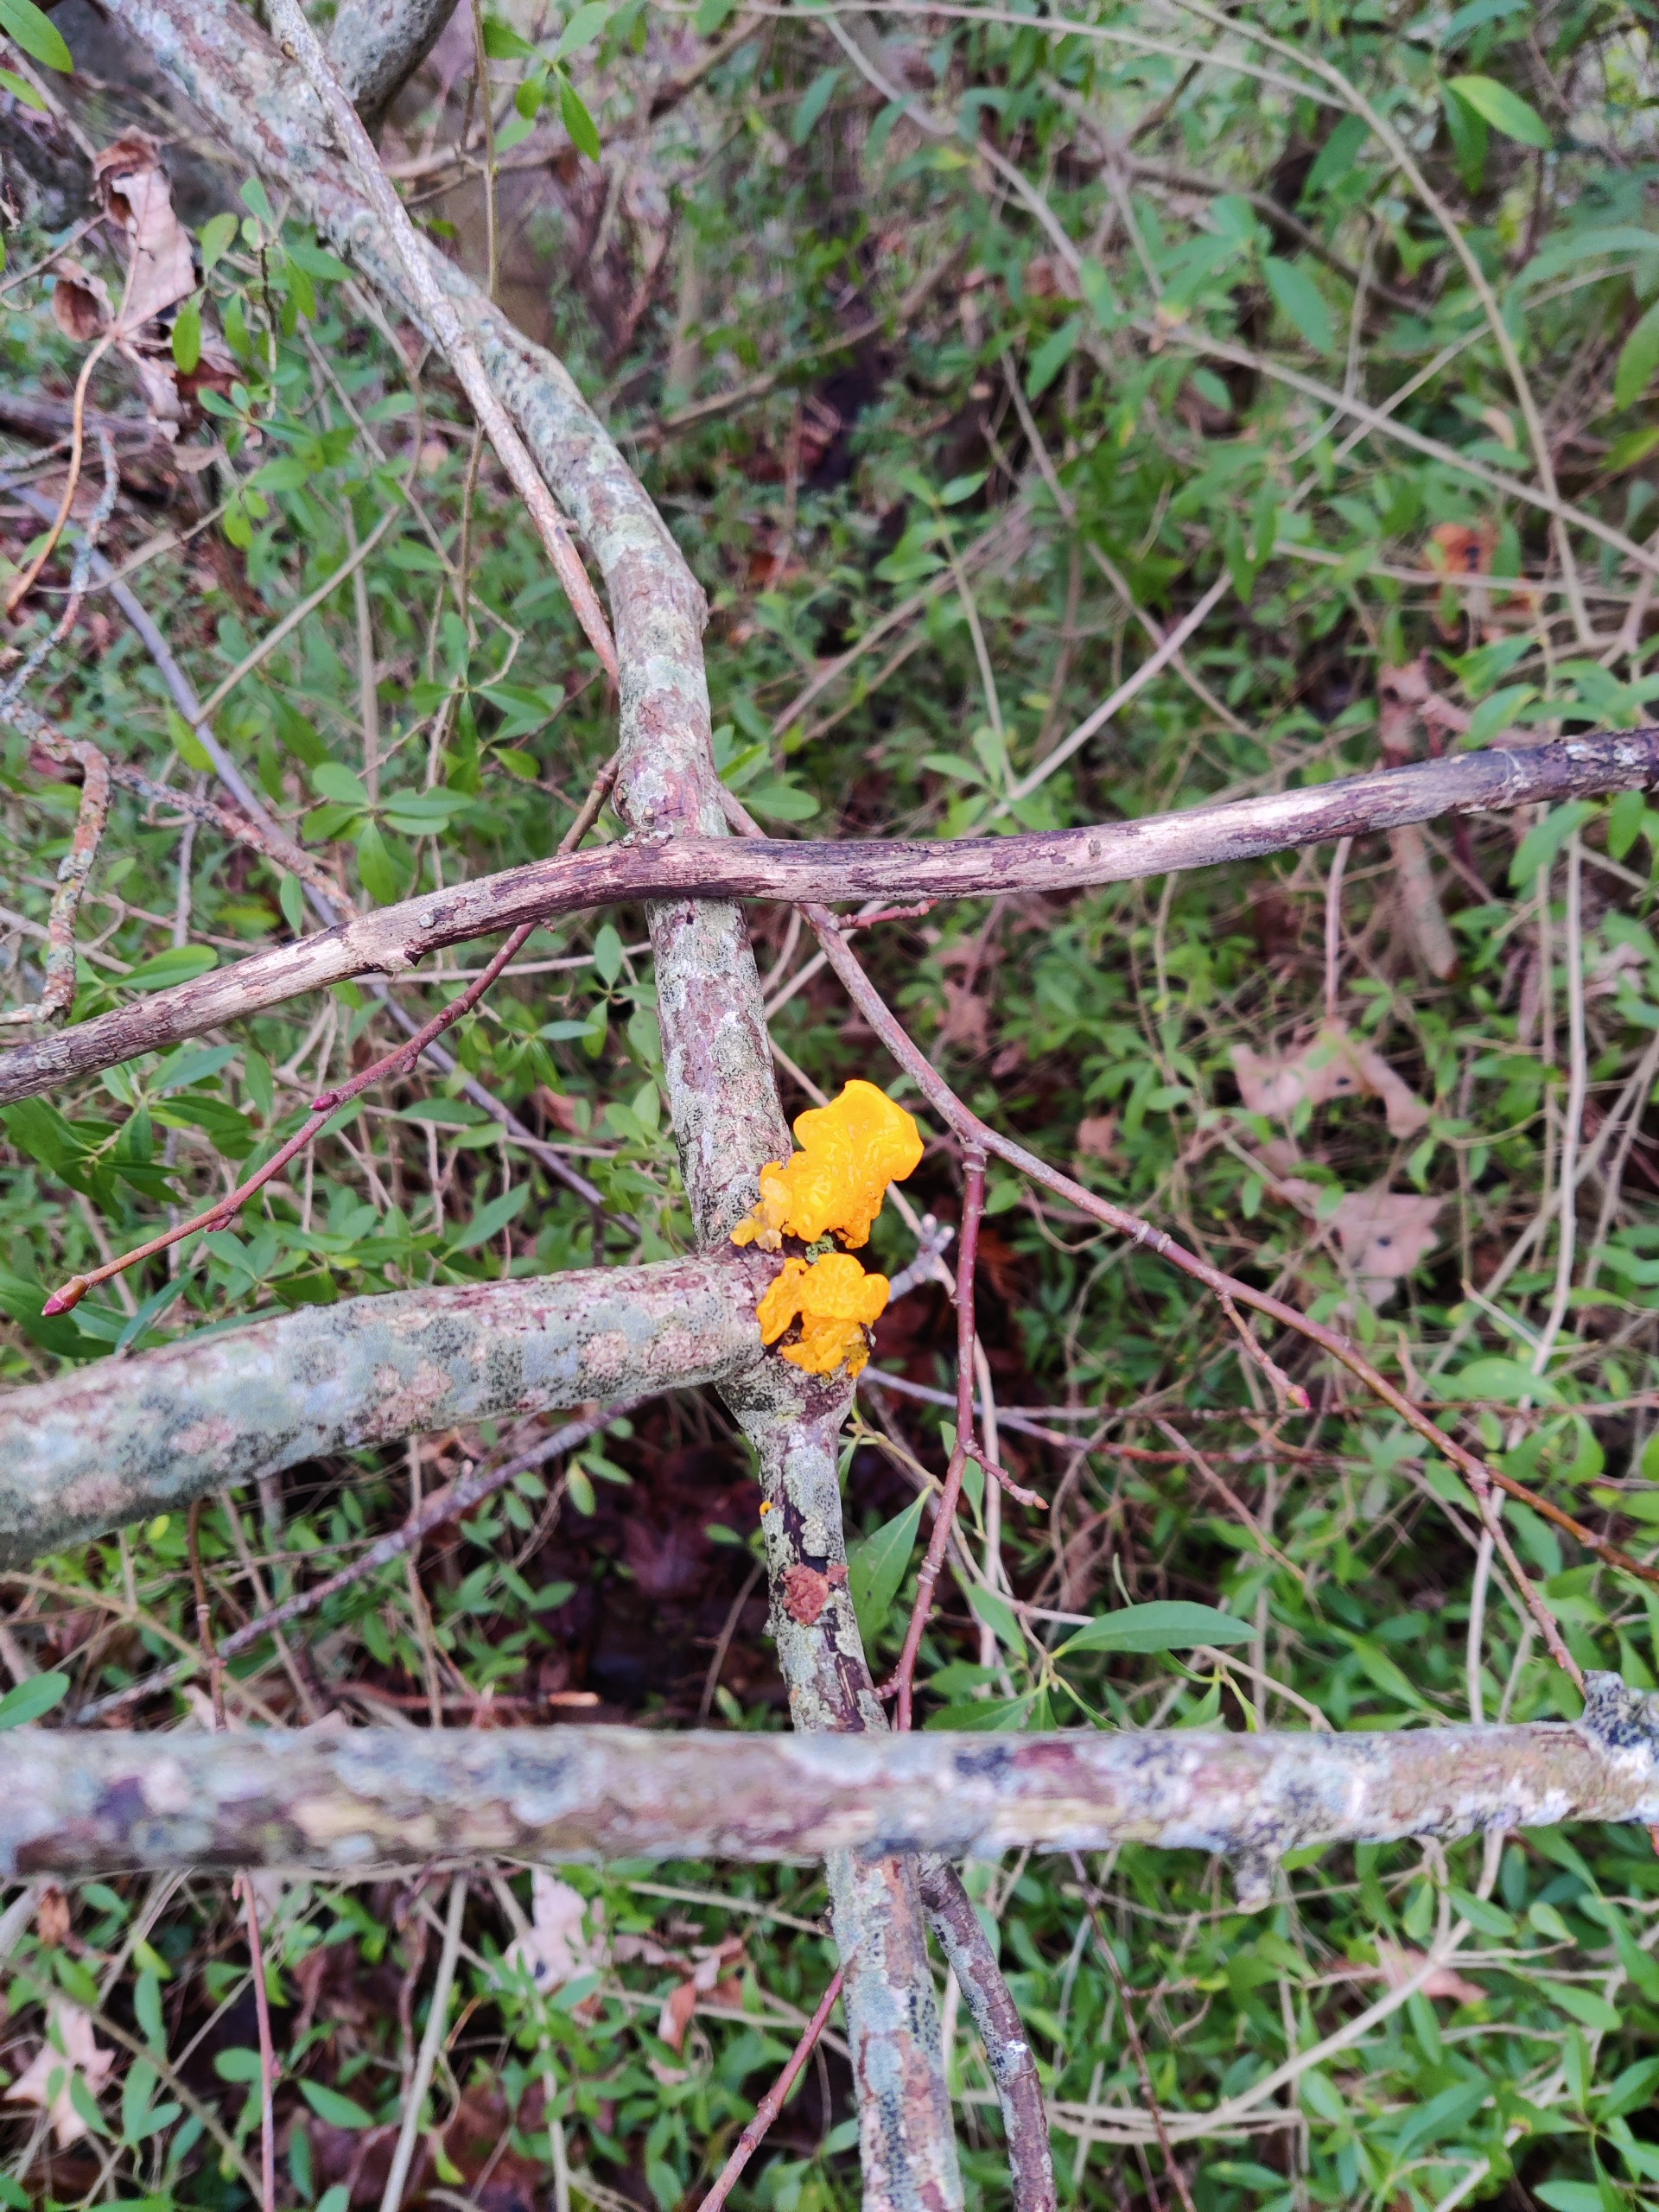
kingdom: Fungi
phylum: Basidiomycota
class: Tremellomycetes
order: Tremellales
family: Tremellaceae
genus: Tremella
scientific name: Tremella mesenterica
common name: Gul bævresvamp
